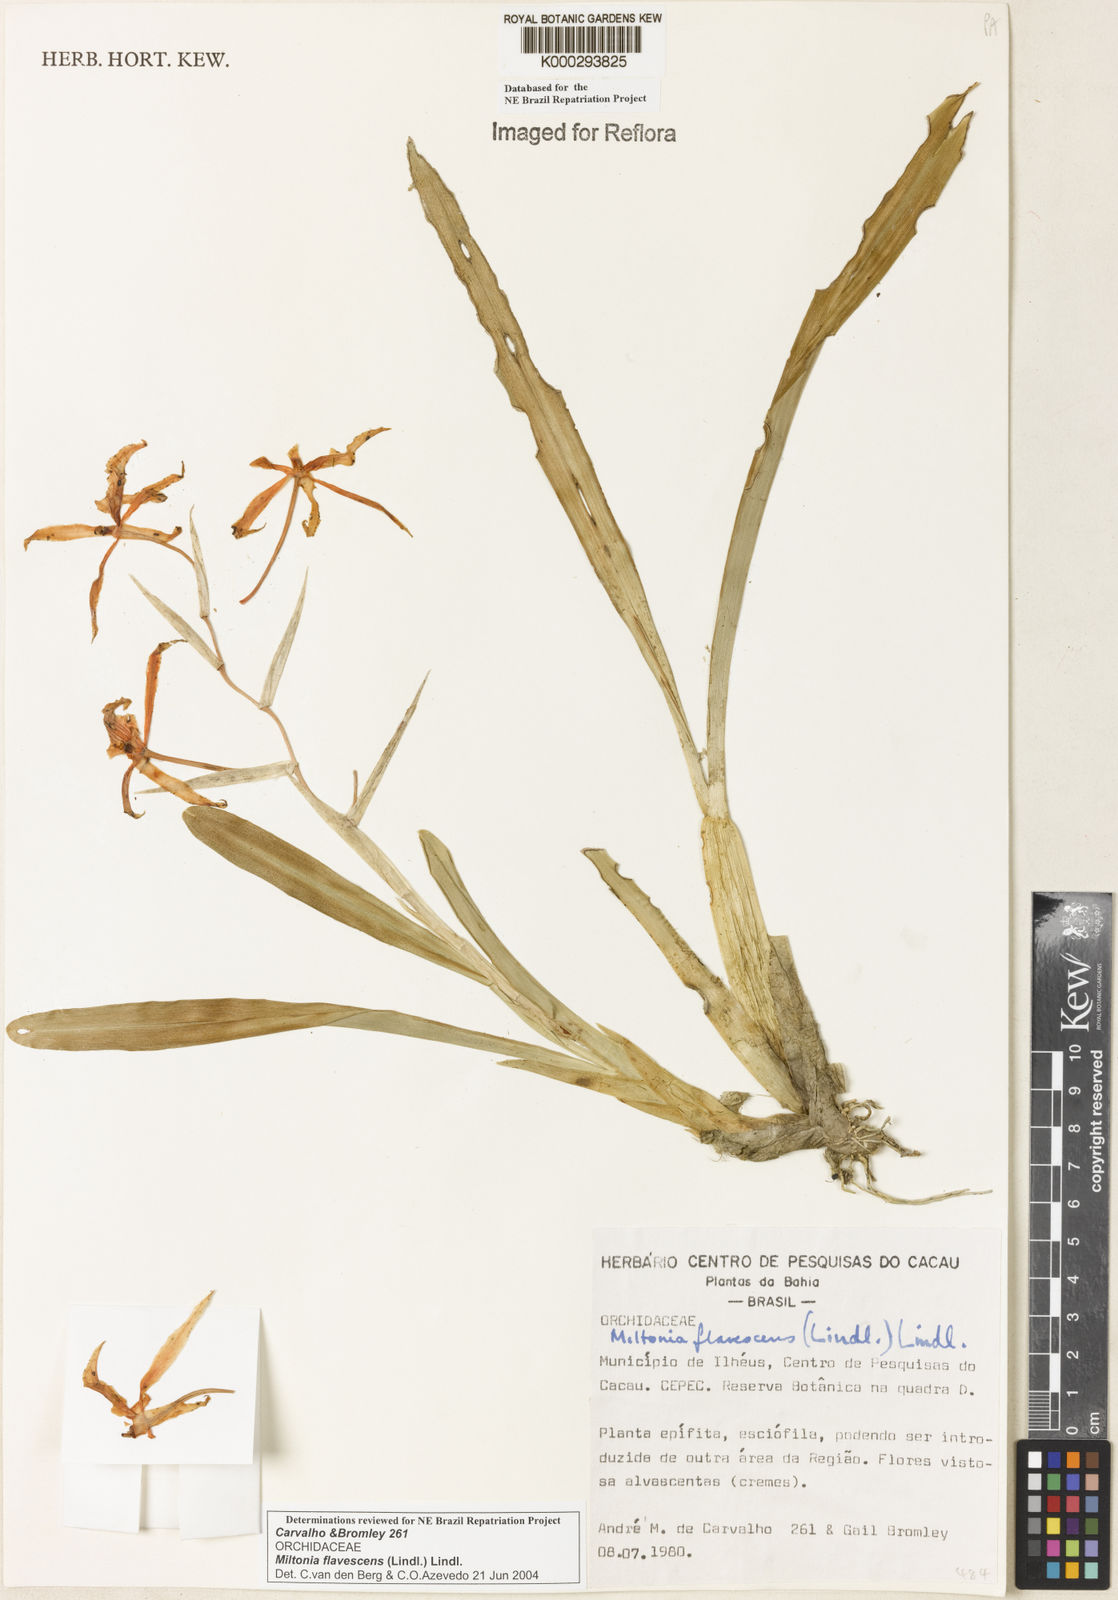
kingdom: Plantae
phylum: Tracheophyta
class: Liliopsida
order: Asparagales
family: Orchidaceae
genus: Miltonia
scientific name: Miltonia flavescens
